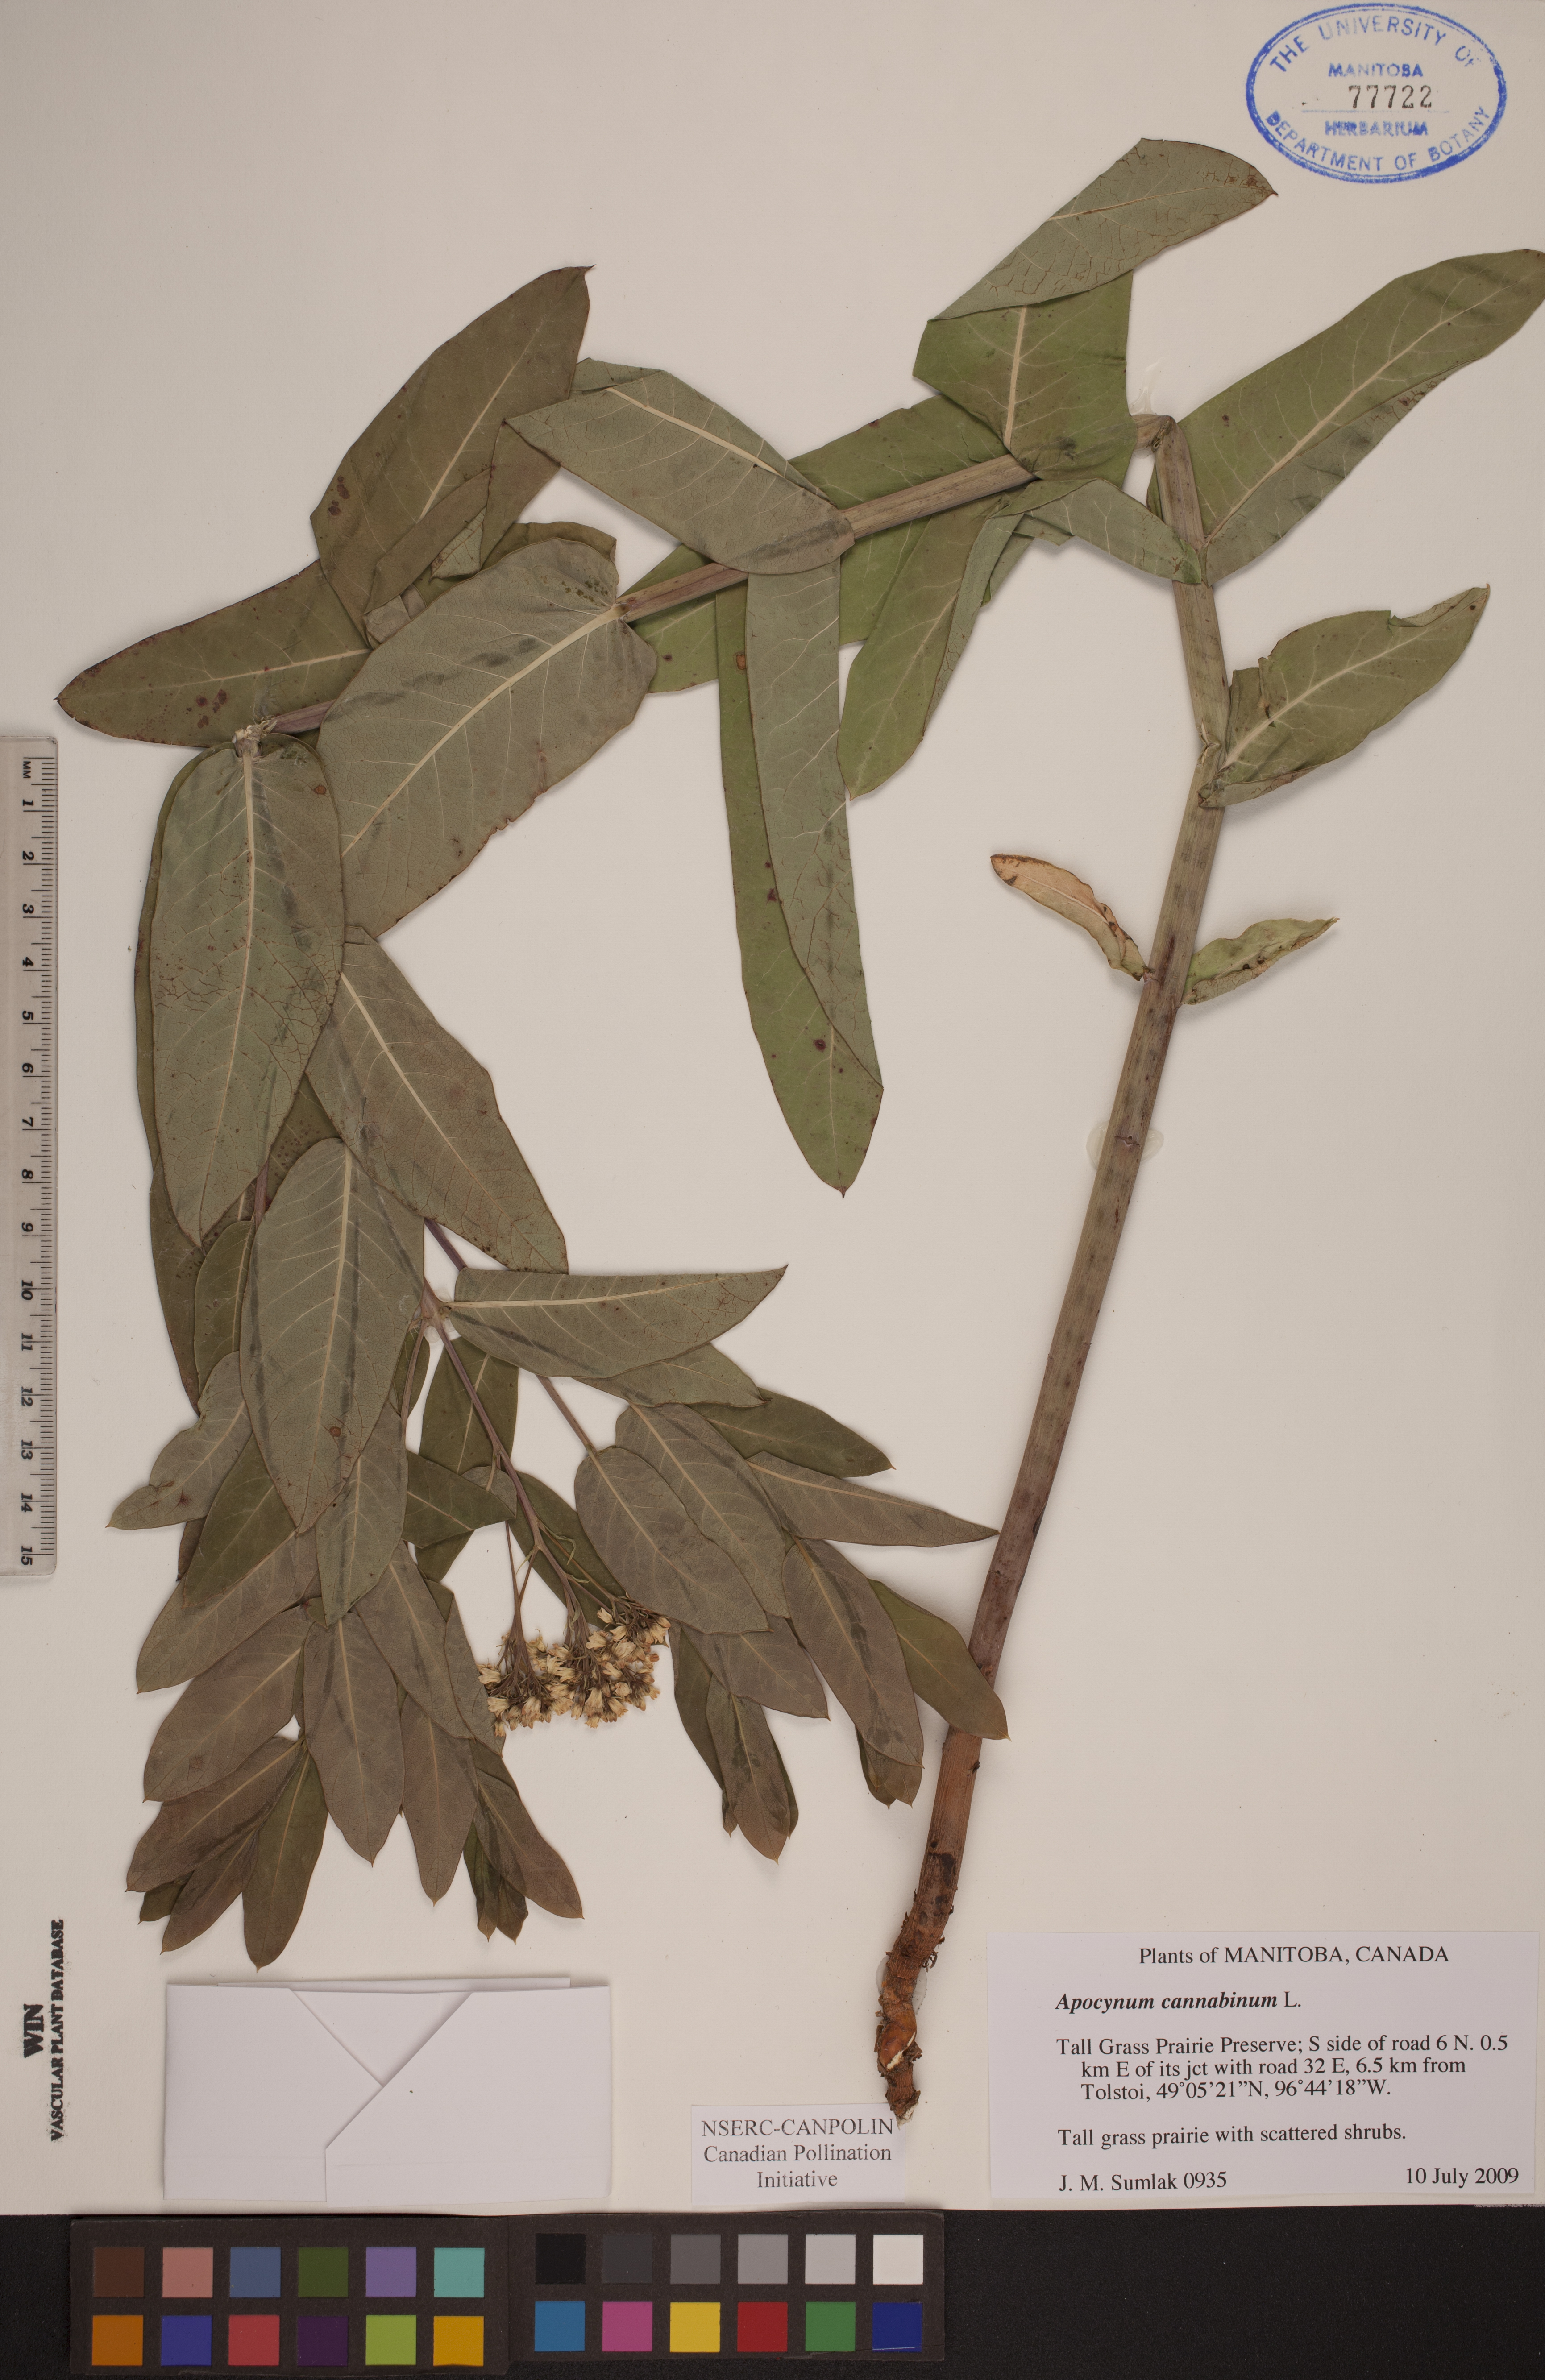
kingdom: Plantae
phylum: Tracheophyta
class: Magnoliopsida
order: Gentianales
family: Apocynaceae
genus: Apocynum
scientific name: Apocynum cannabinum
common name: Hemp dogbane
